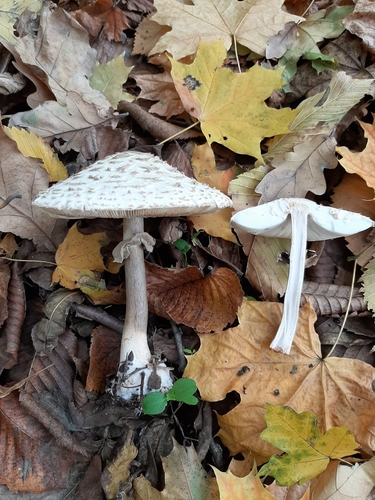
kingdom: Fungi
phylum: Basidiomycota
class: Agaricomycetes
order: Agaricales
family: Agaricaceae
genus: Chlorophyllum
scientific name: Chlorophyllum rhacodes
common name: Shaggy parasol
